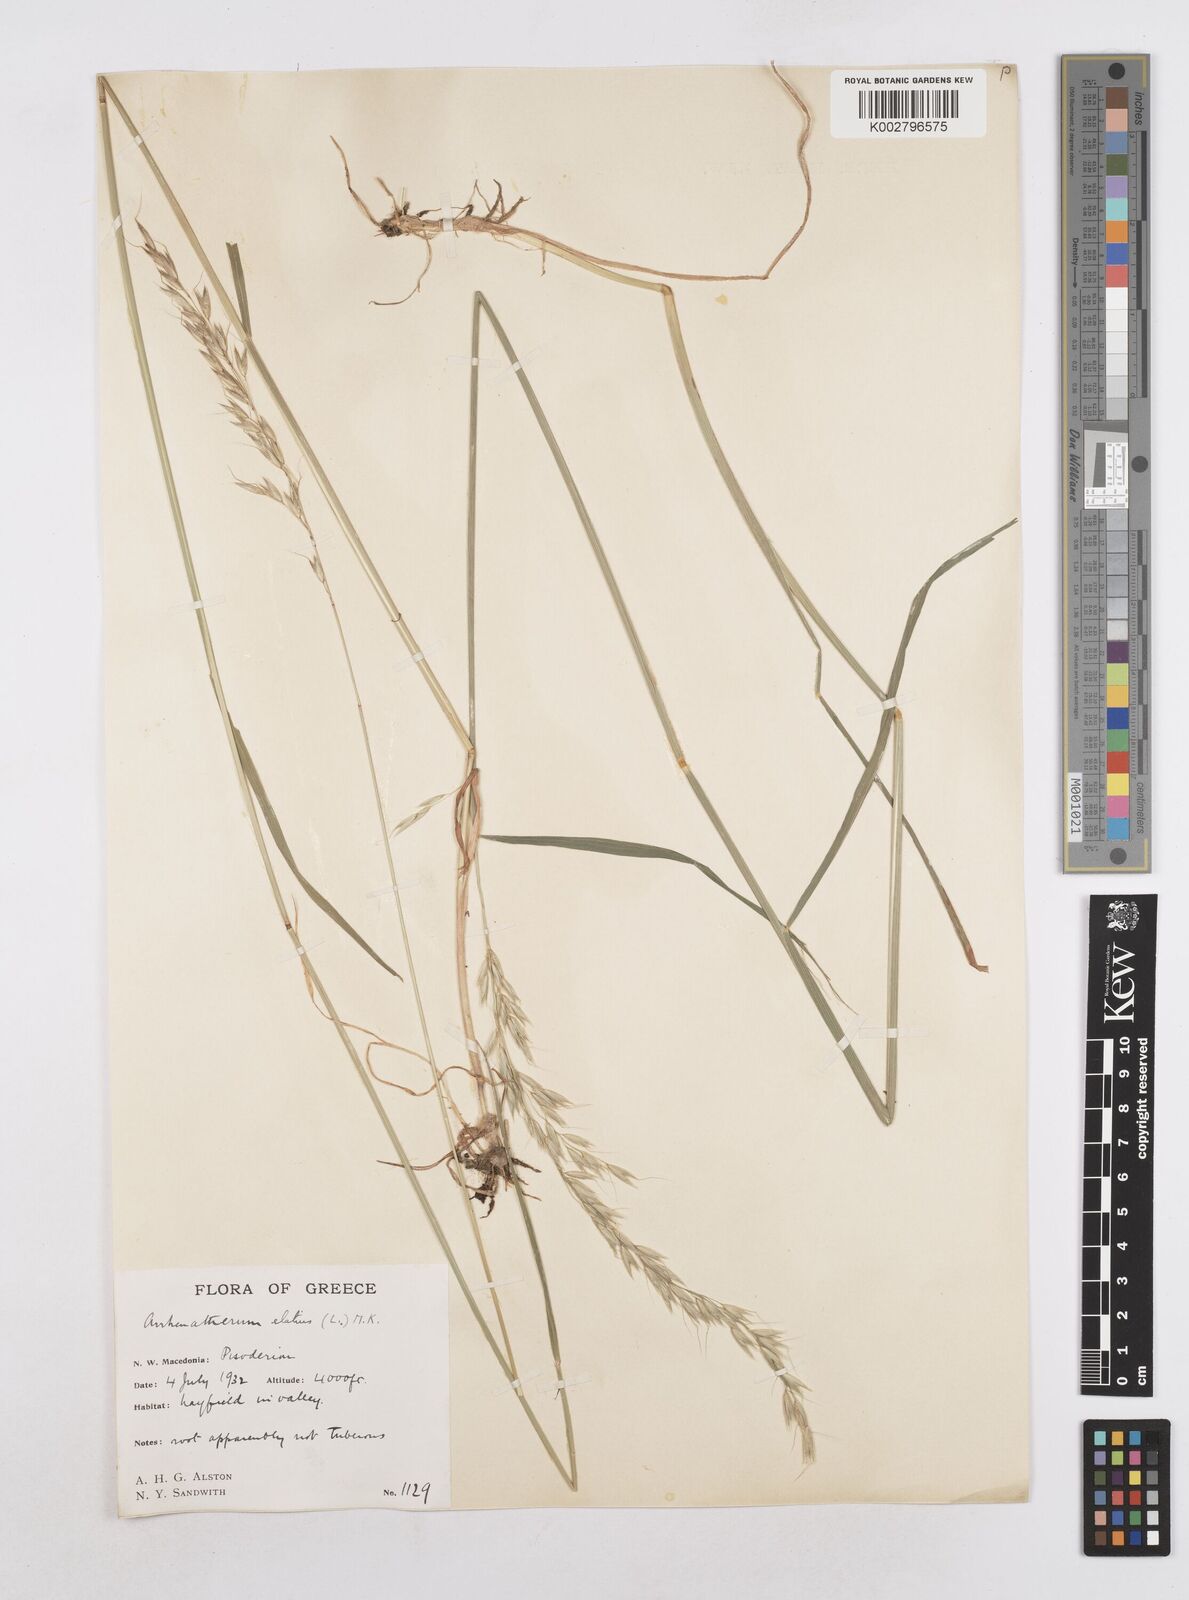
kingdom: Plantae
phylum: Tracheophyta
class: Liliopsida
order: Poales
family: Poaceae
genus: Arrhenatherum
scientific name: Arrhenatherum elatius
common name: Tall oatgrass
